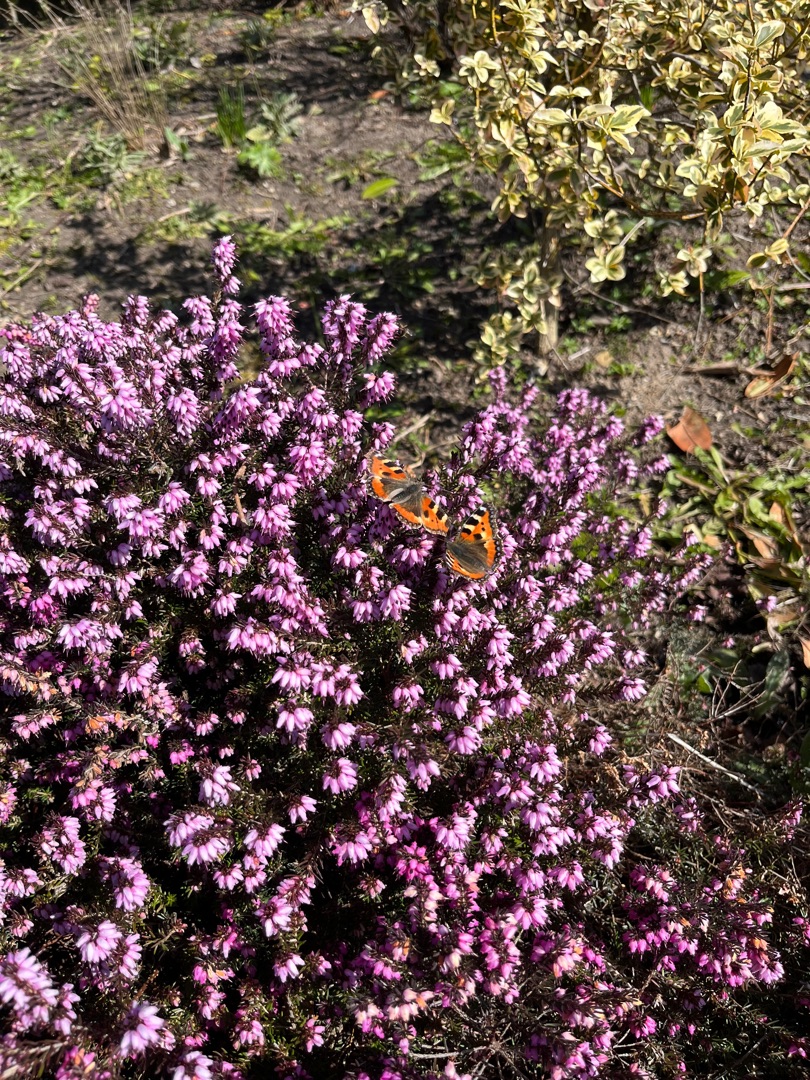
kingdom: Animalia
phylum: Arthropoda
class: Insecta
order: Lepidoptera
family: Nymphalidae
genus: Aglais
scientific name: Aglais urticae
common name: Nældens takvinge
